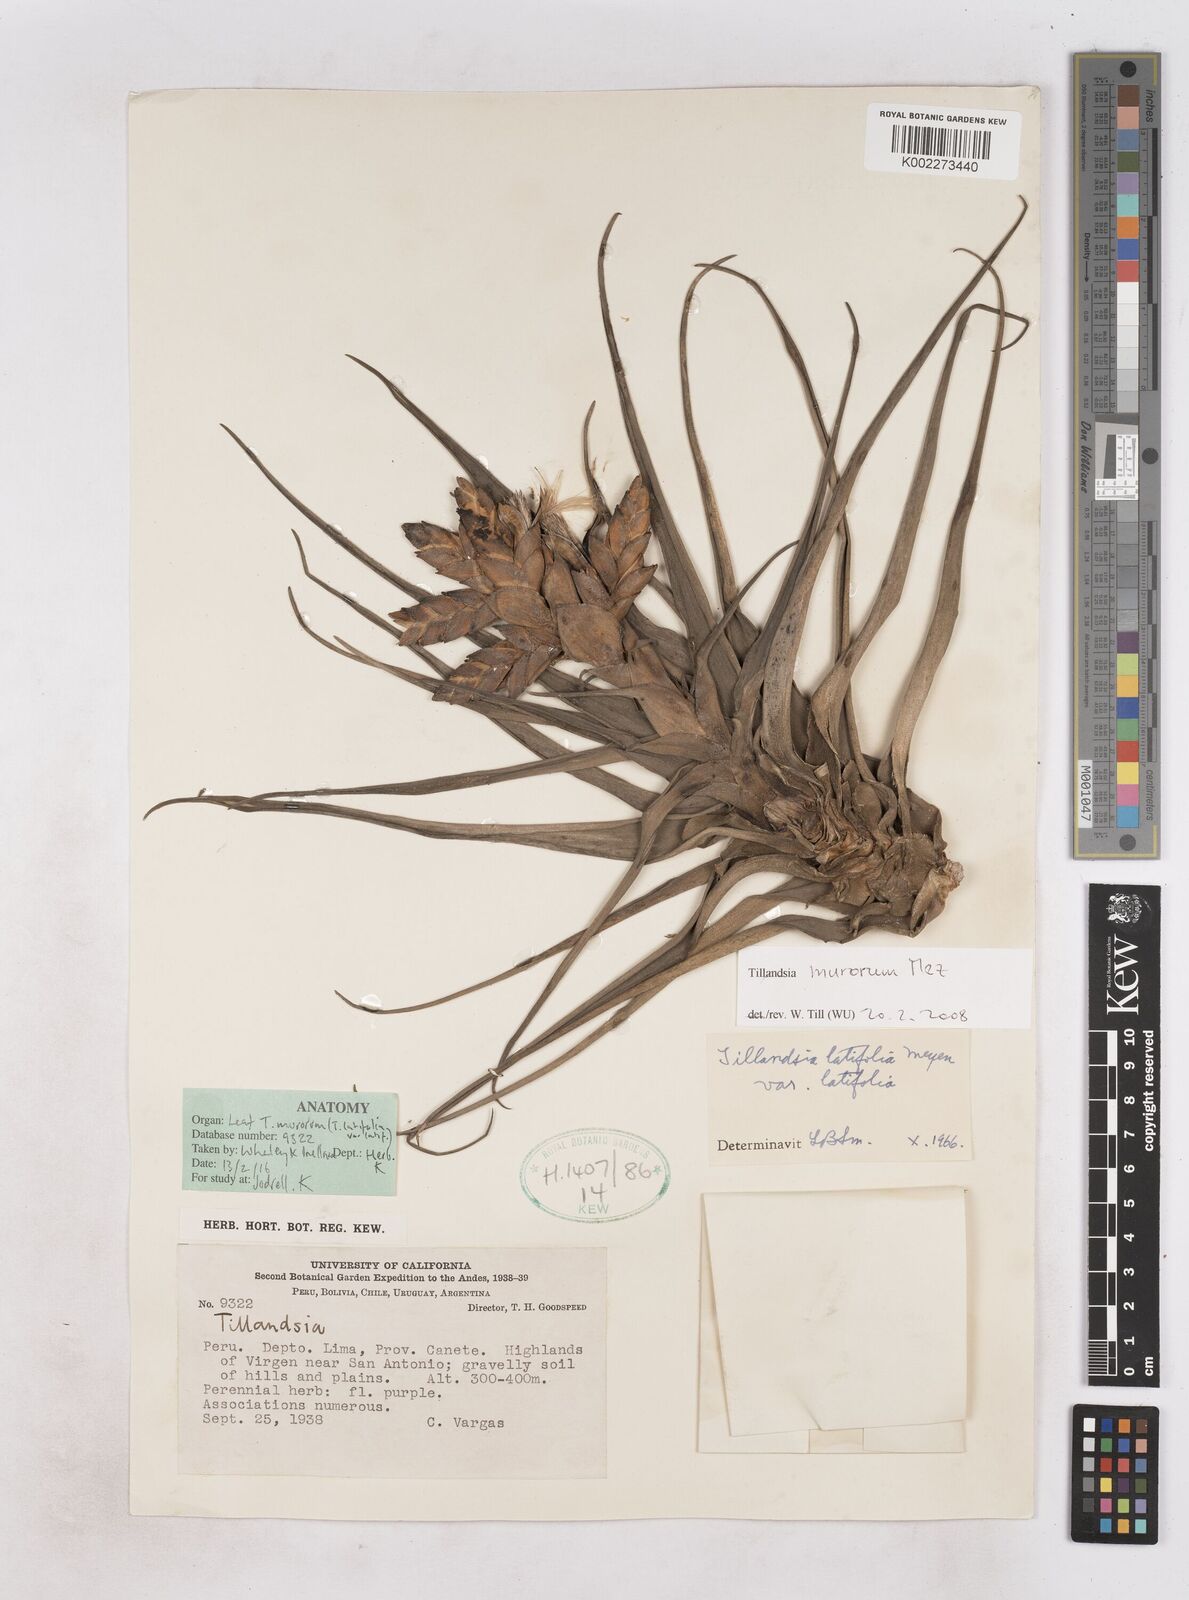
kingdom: Plantae
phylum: Tracheophyta
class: Liliopsida
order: Poales
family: Bromeliaceae
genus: Tillandsia
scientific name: Tillandsia latifolia
